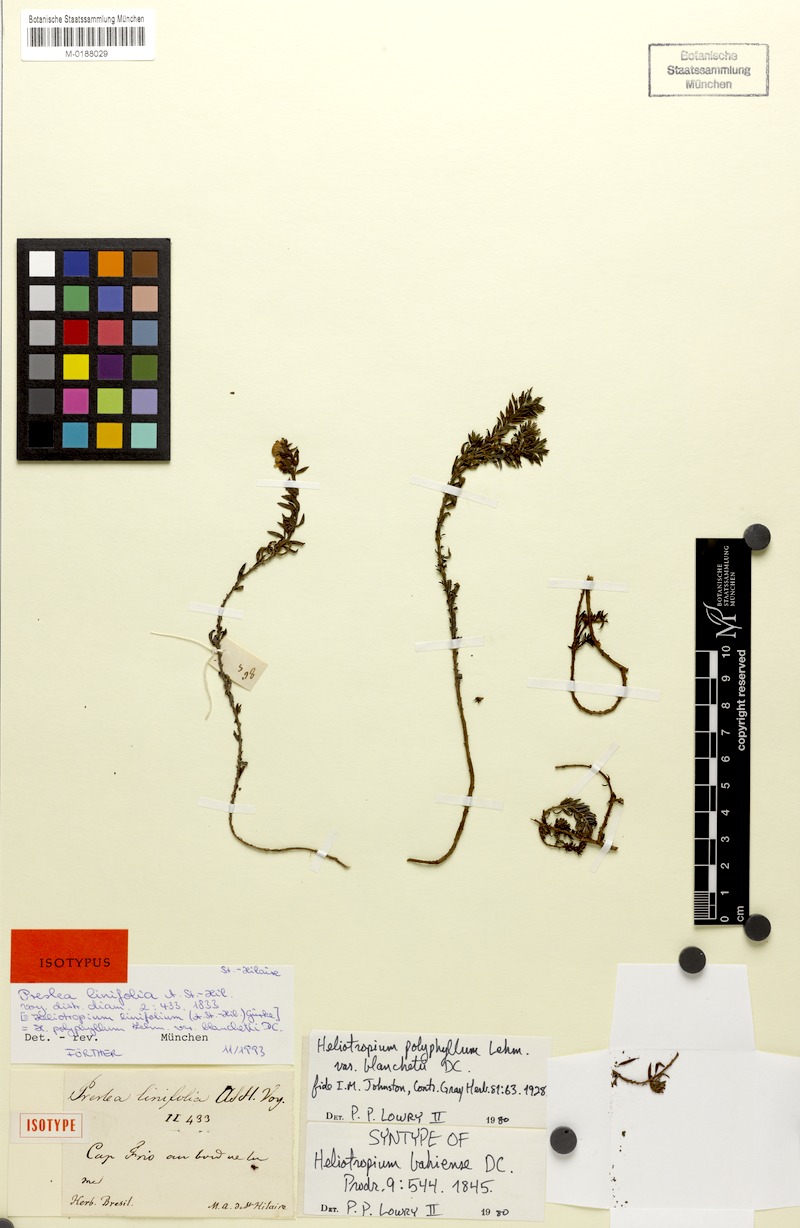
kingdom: Plantae
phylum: Tracheophyta
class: Magnoliopsida
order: Boraginales
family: Heliotropiaceae
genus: Euploca
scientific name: Euploca polyphylla
